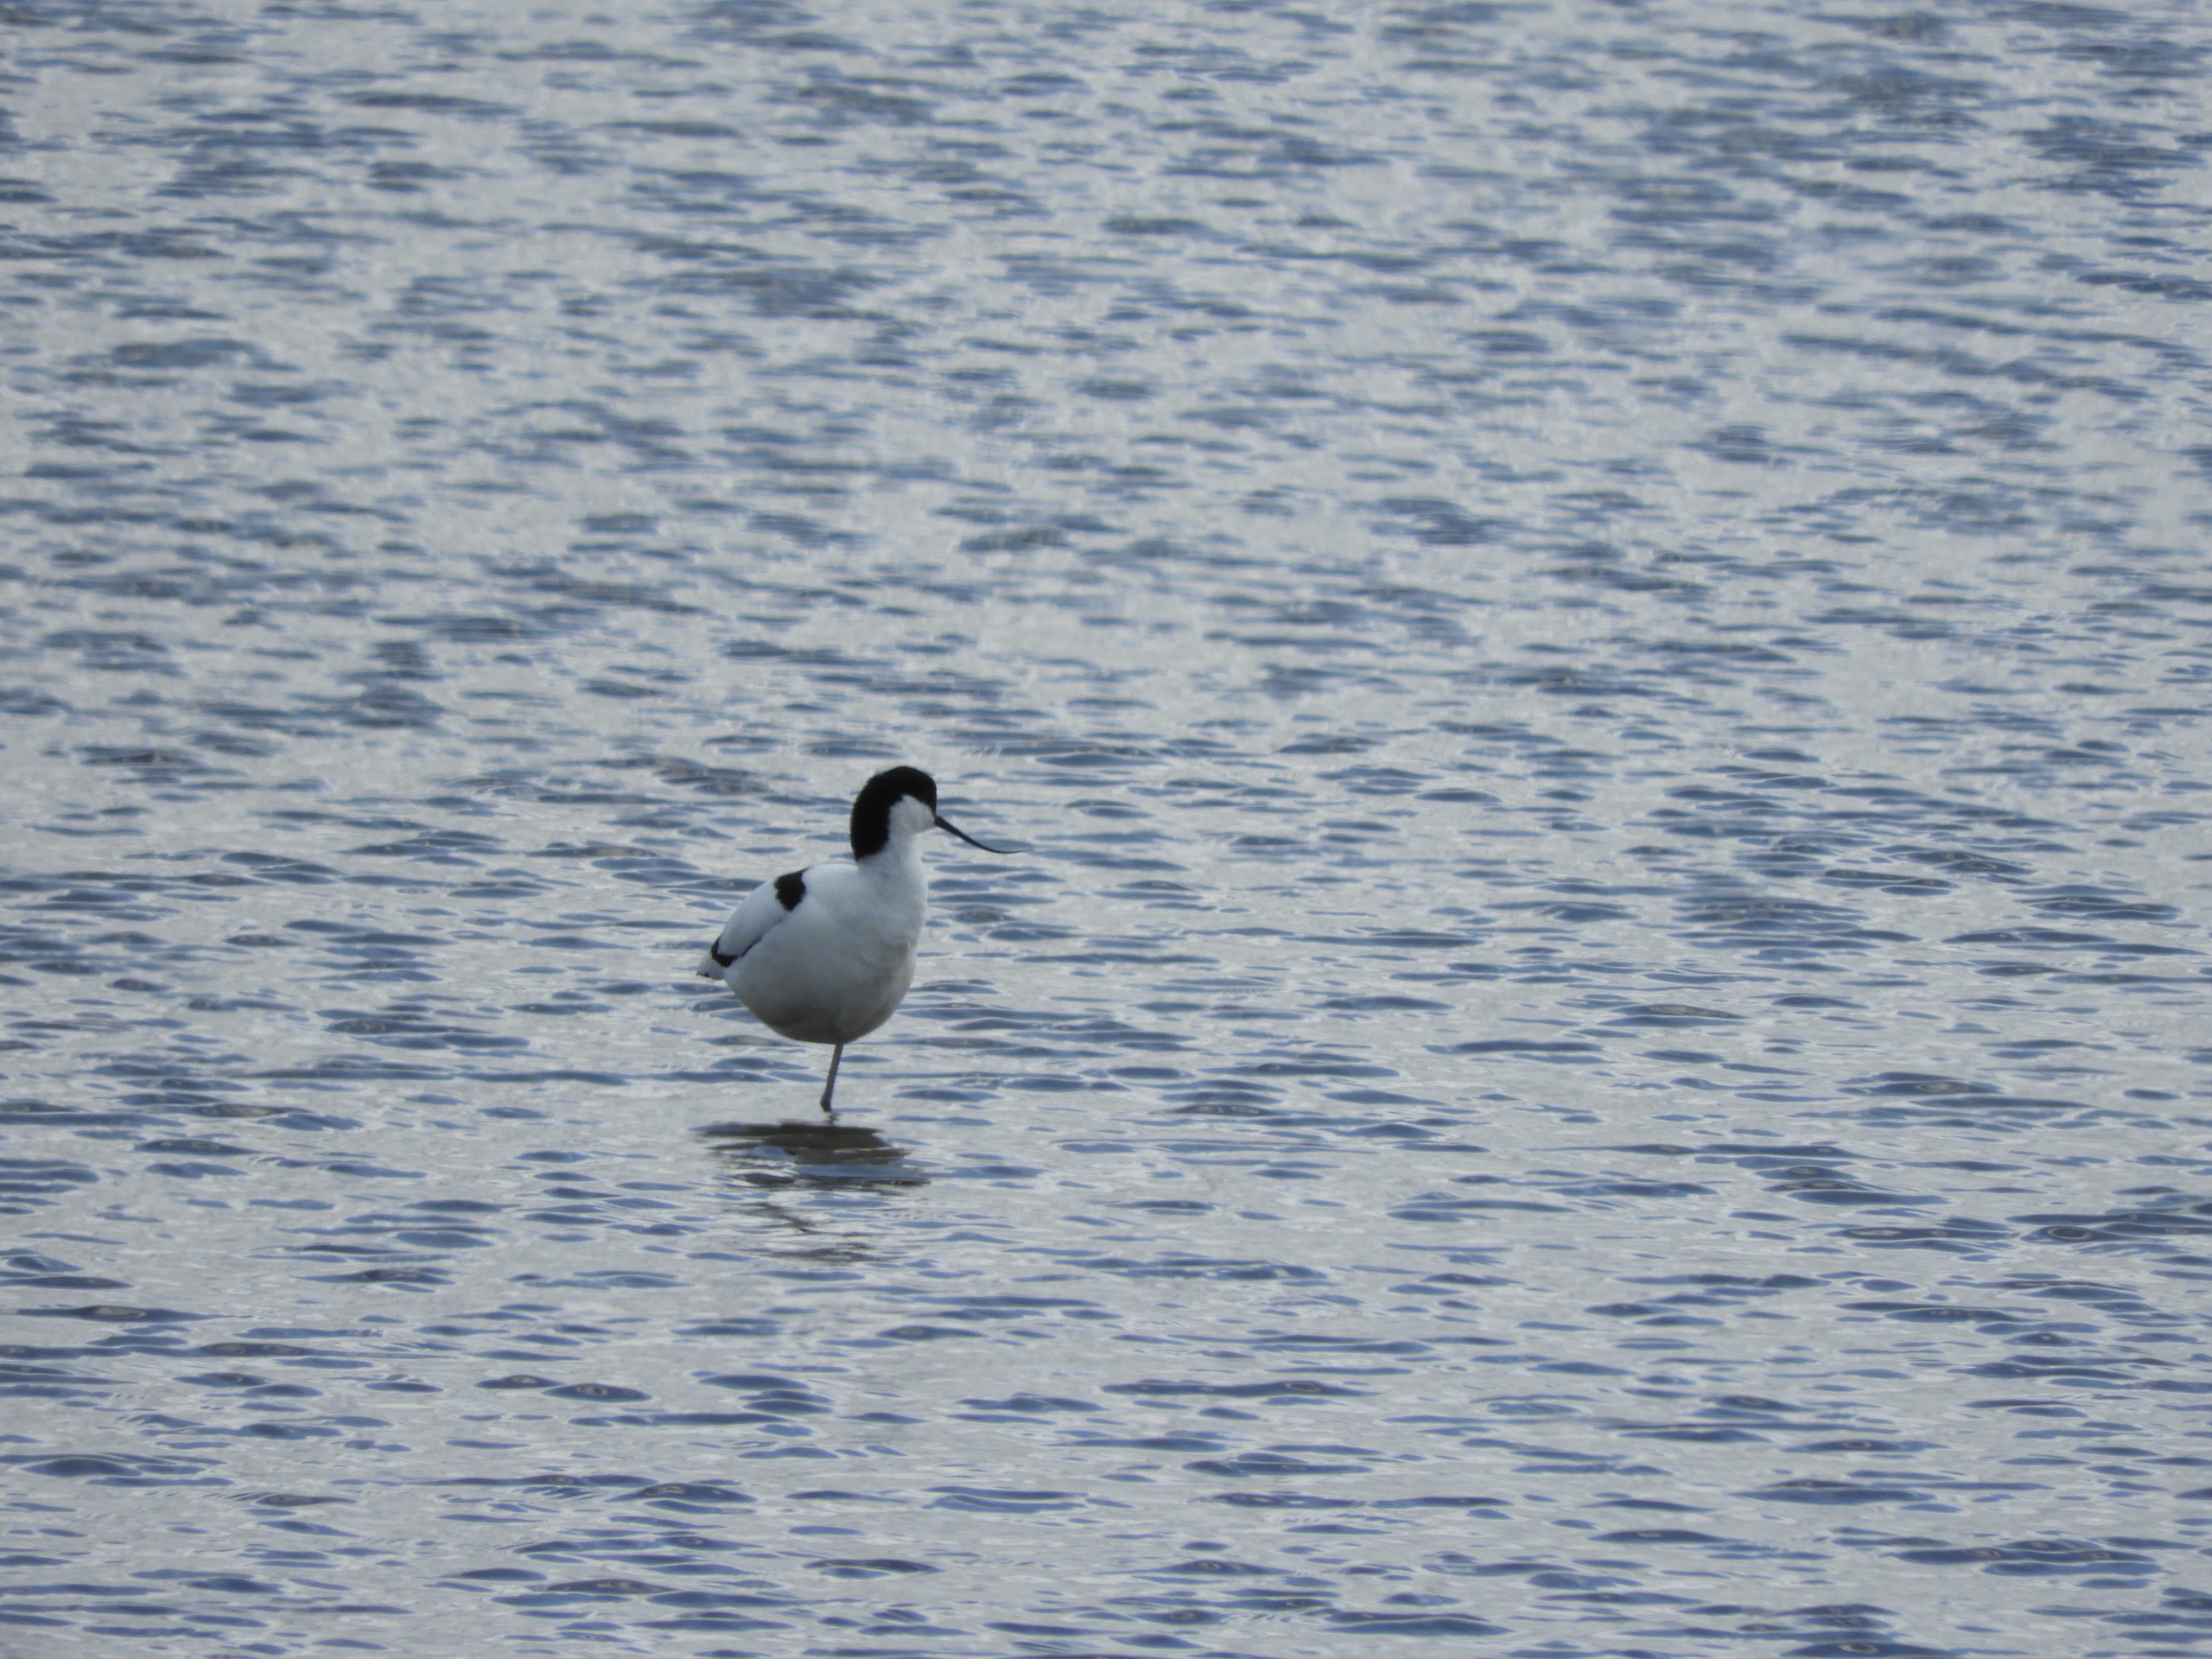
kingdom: Animalia
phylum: Chordata
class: Aves
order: Charadriiformes
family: Recurvirostridae
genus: Recurvirostra
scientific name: Recurvirostra avosetta
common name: Klyde
